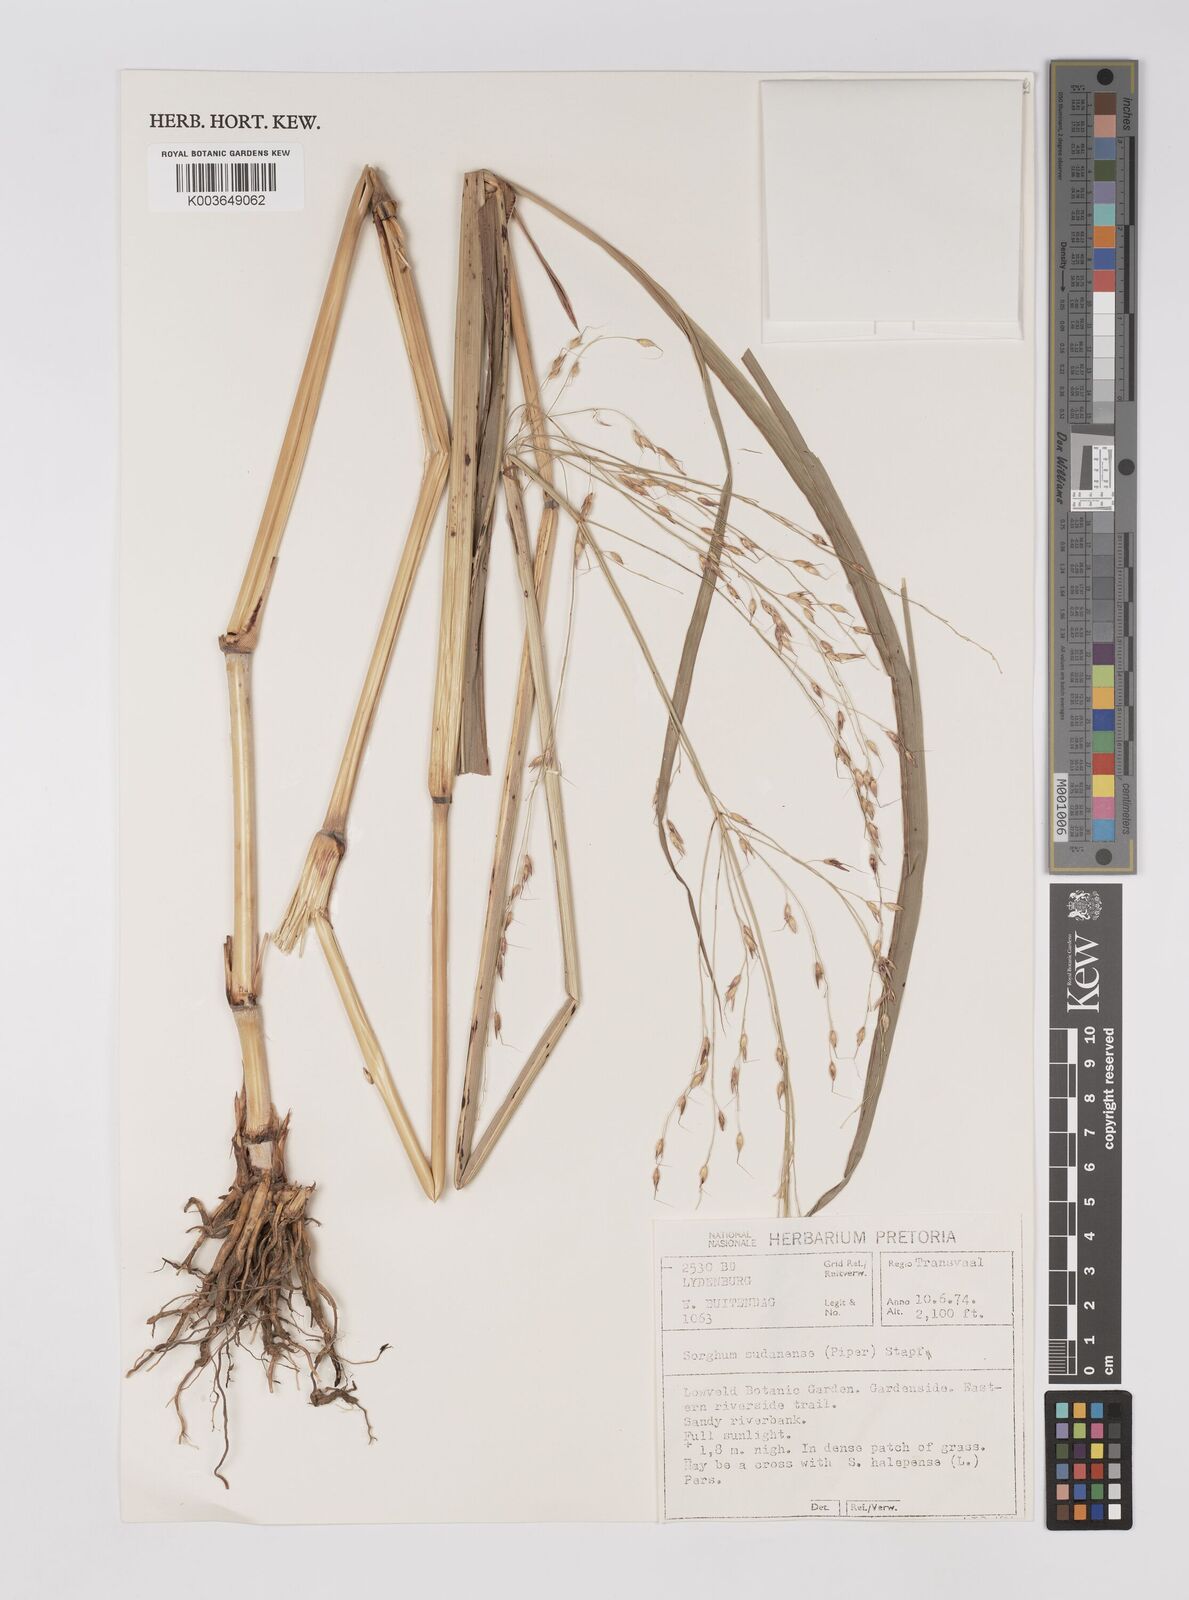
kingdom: Plantae
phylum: Tracheophyta
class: Liliopsida
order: Poales
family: Poaceae
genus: Sorghum
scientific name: Sorghum drummondii
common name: Sudangrass
